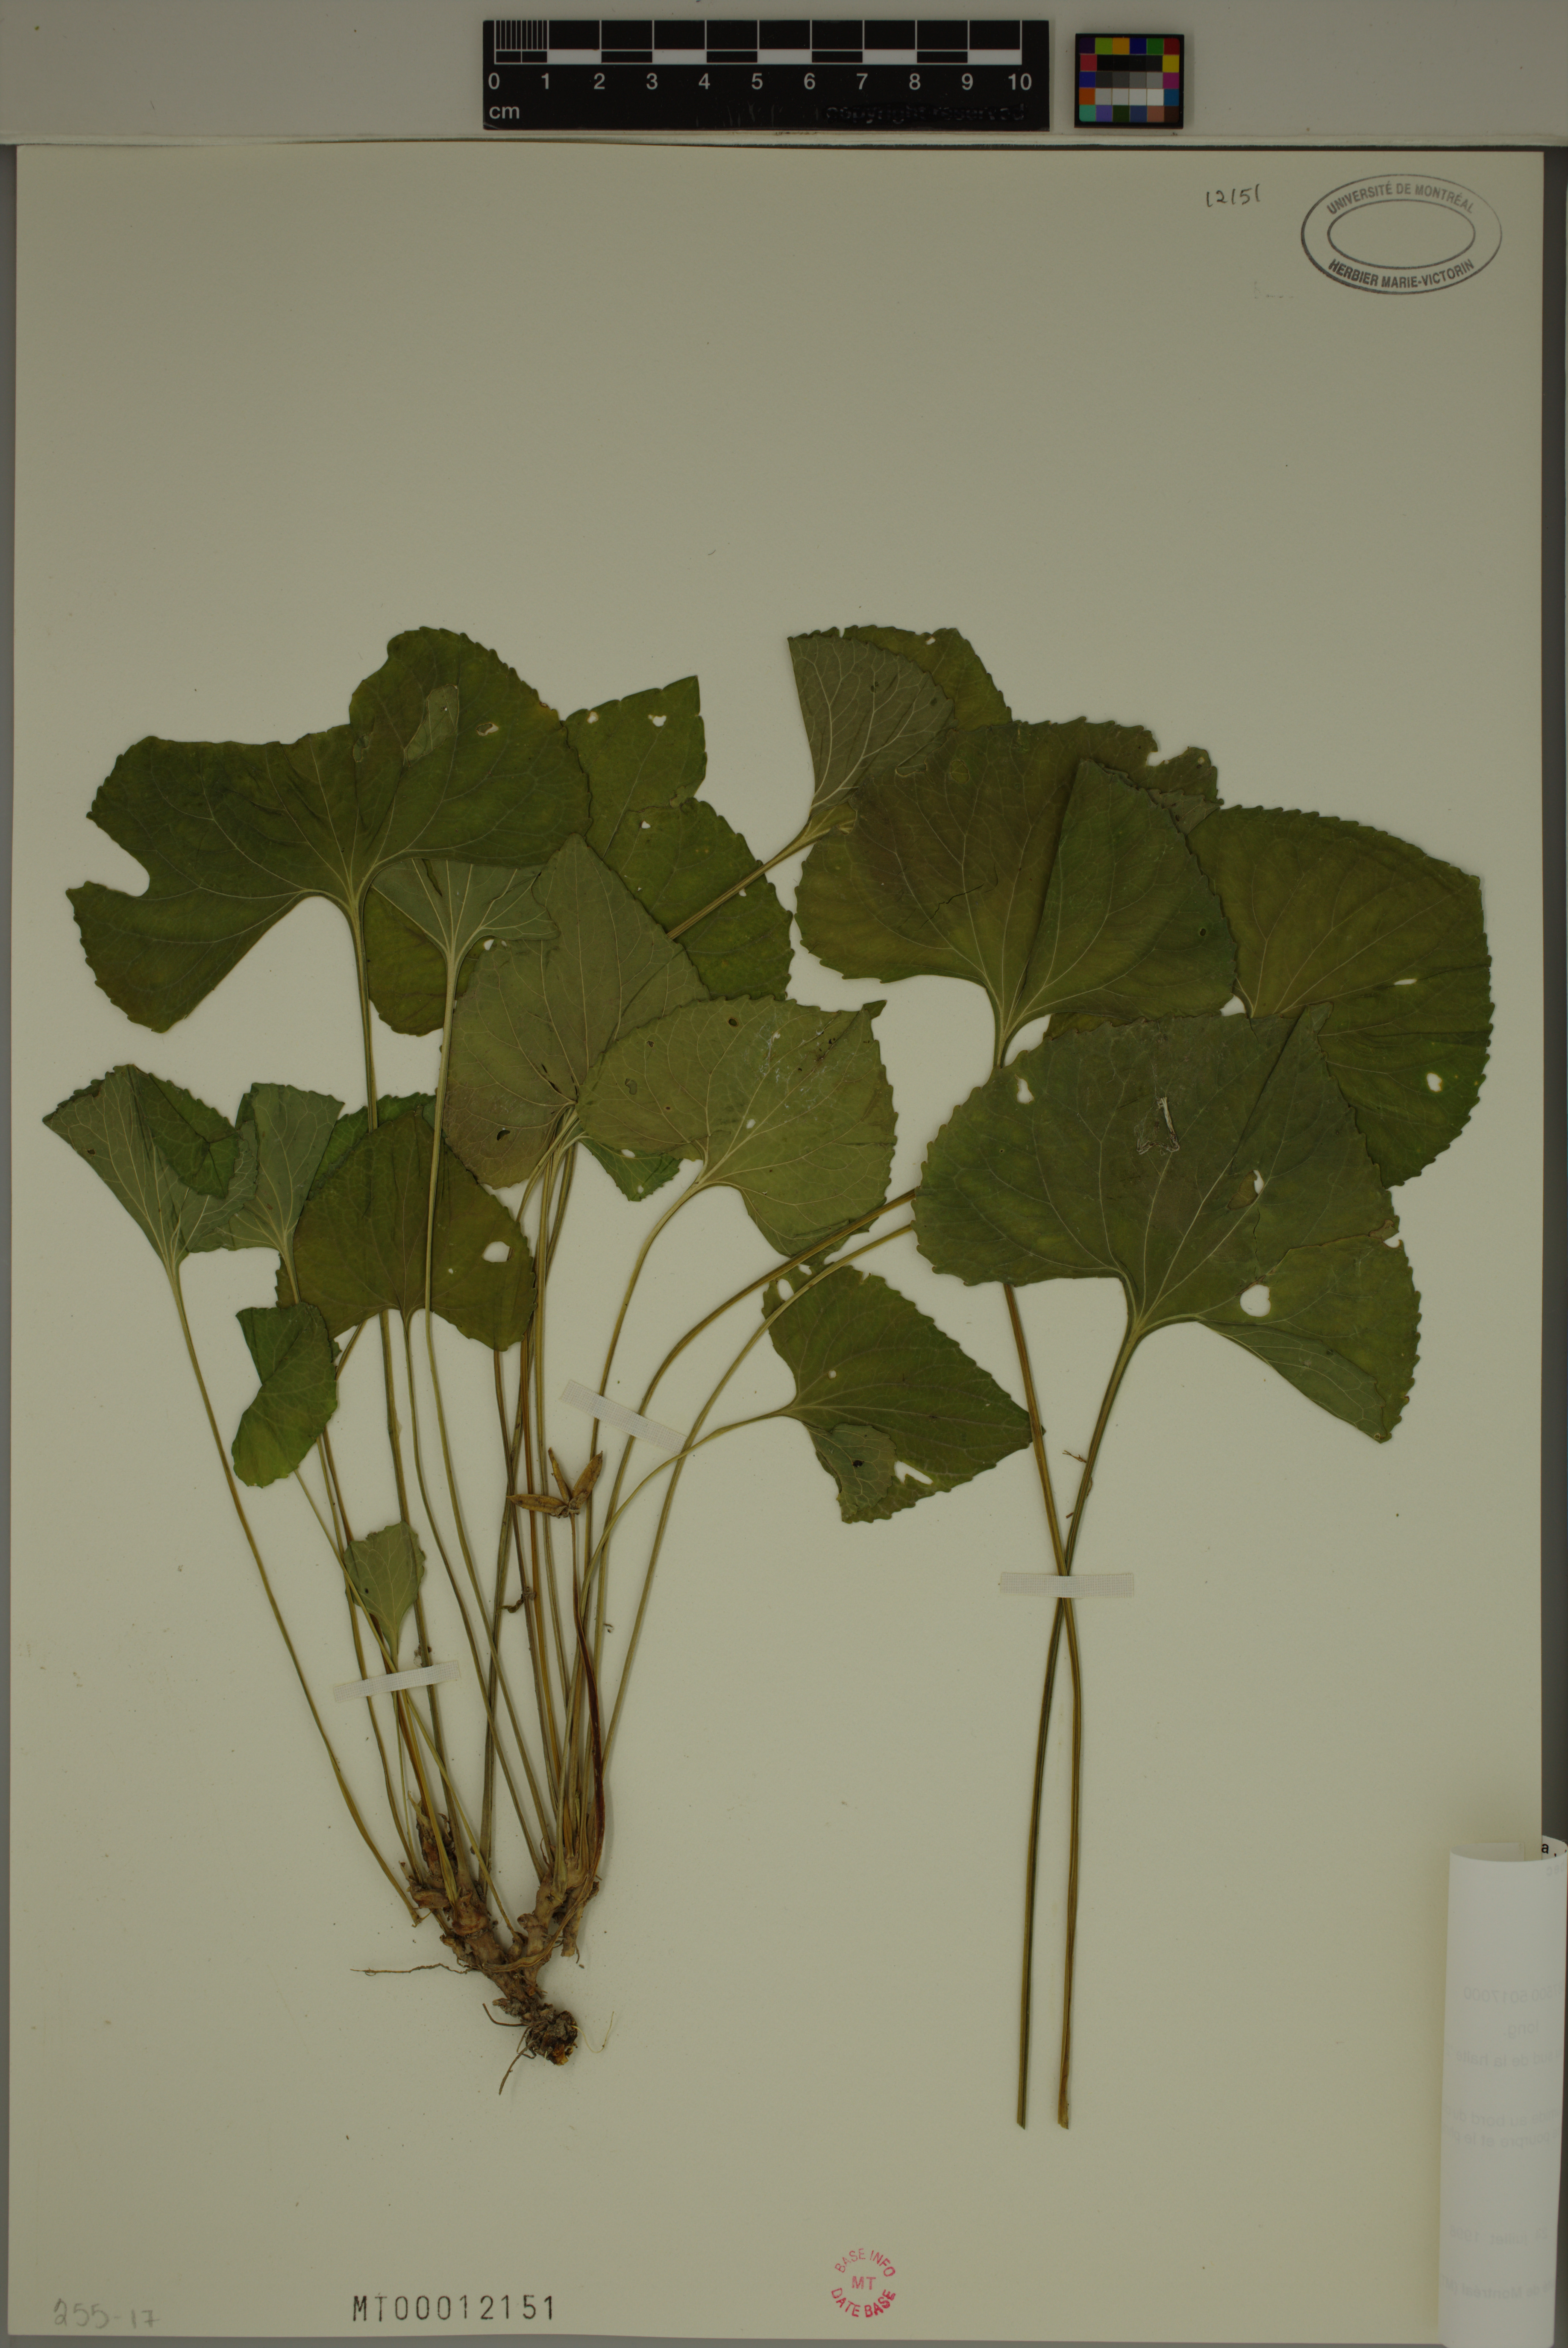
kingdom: Plantae
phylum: Tracheophyta
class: Magnoliopsida
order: Malpighiales
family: Violaceae
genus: Viola
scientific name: Viola sororia
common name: Dooryard violet
